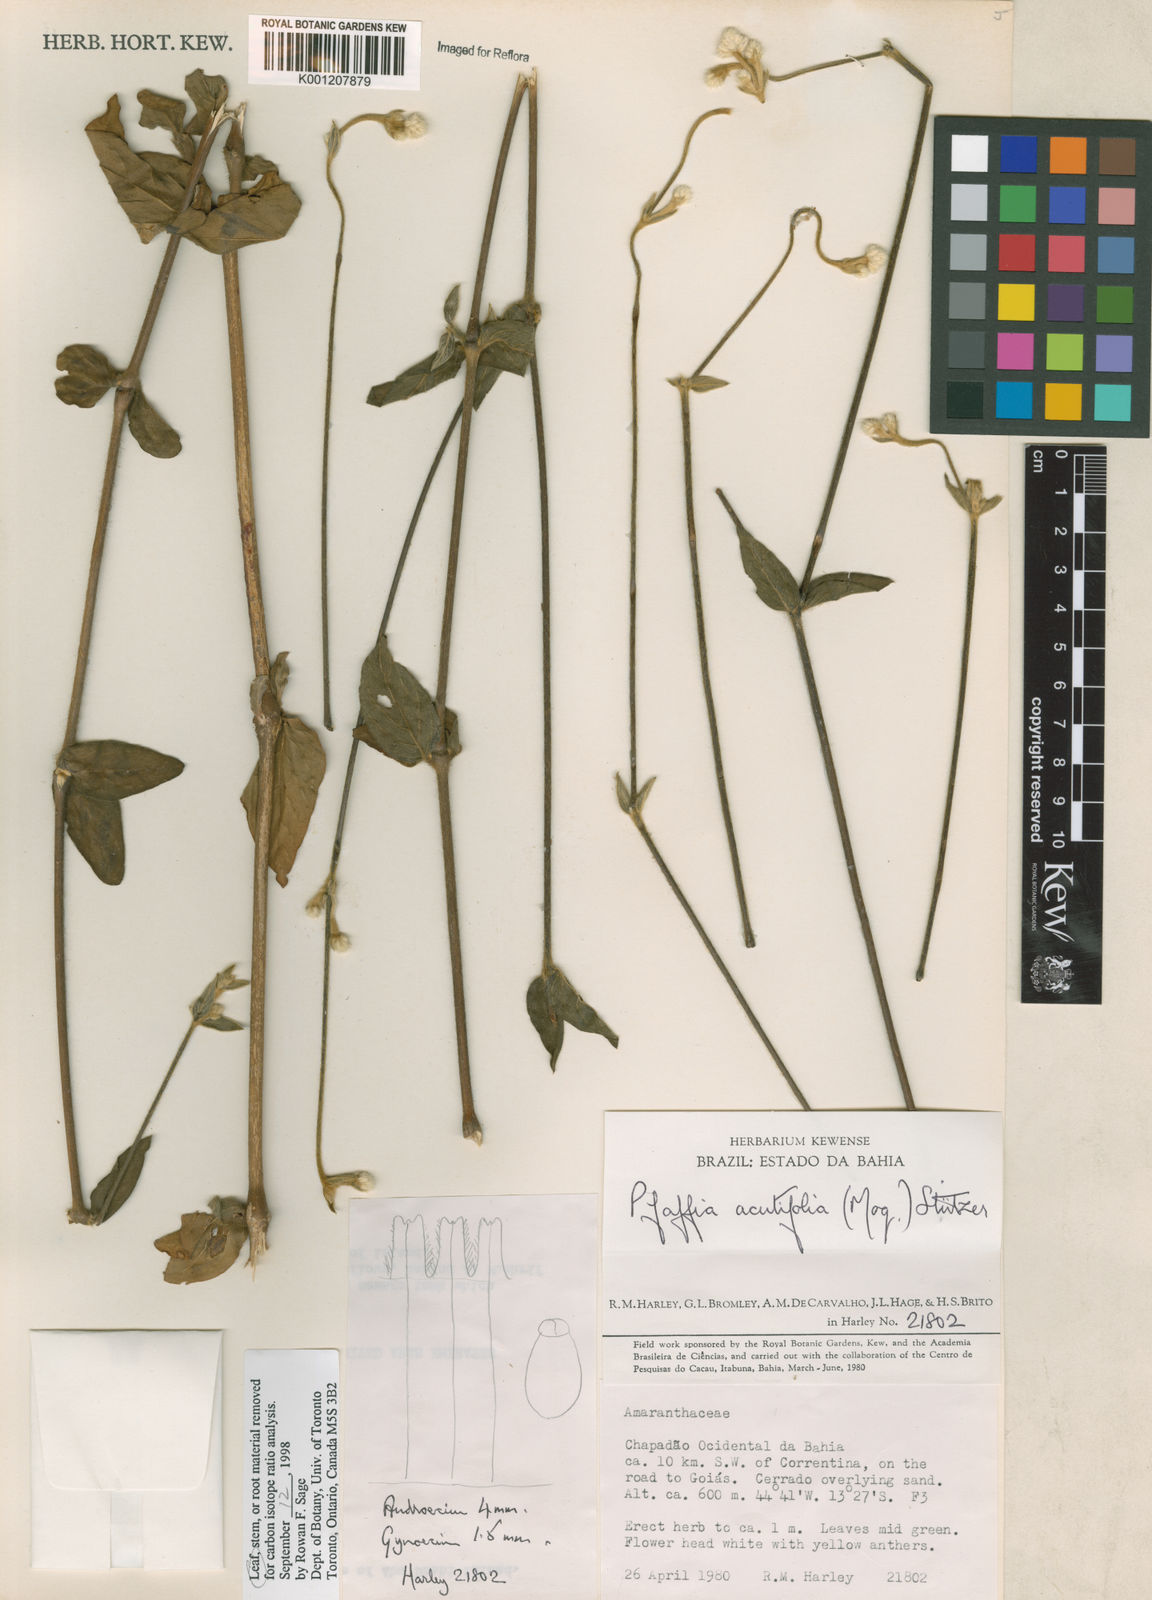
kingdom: Plantae
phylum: Tracheophyta
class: Magnoliopsida
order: Caryophyllales
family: Amaranthaceae
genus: Pfaffia
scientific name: Pfaffia
